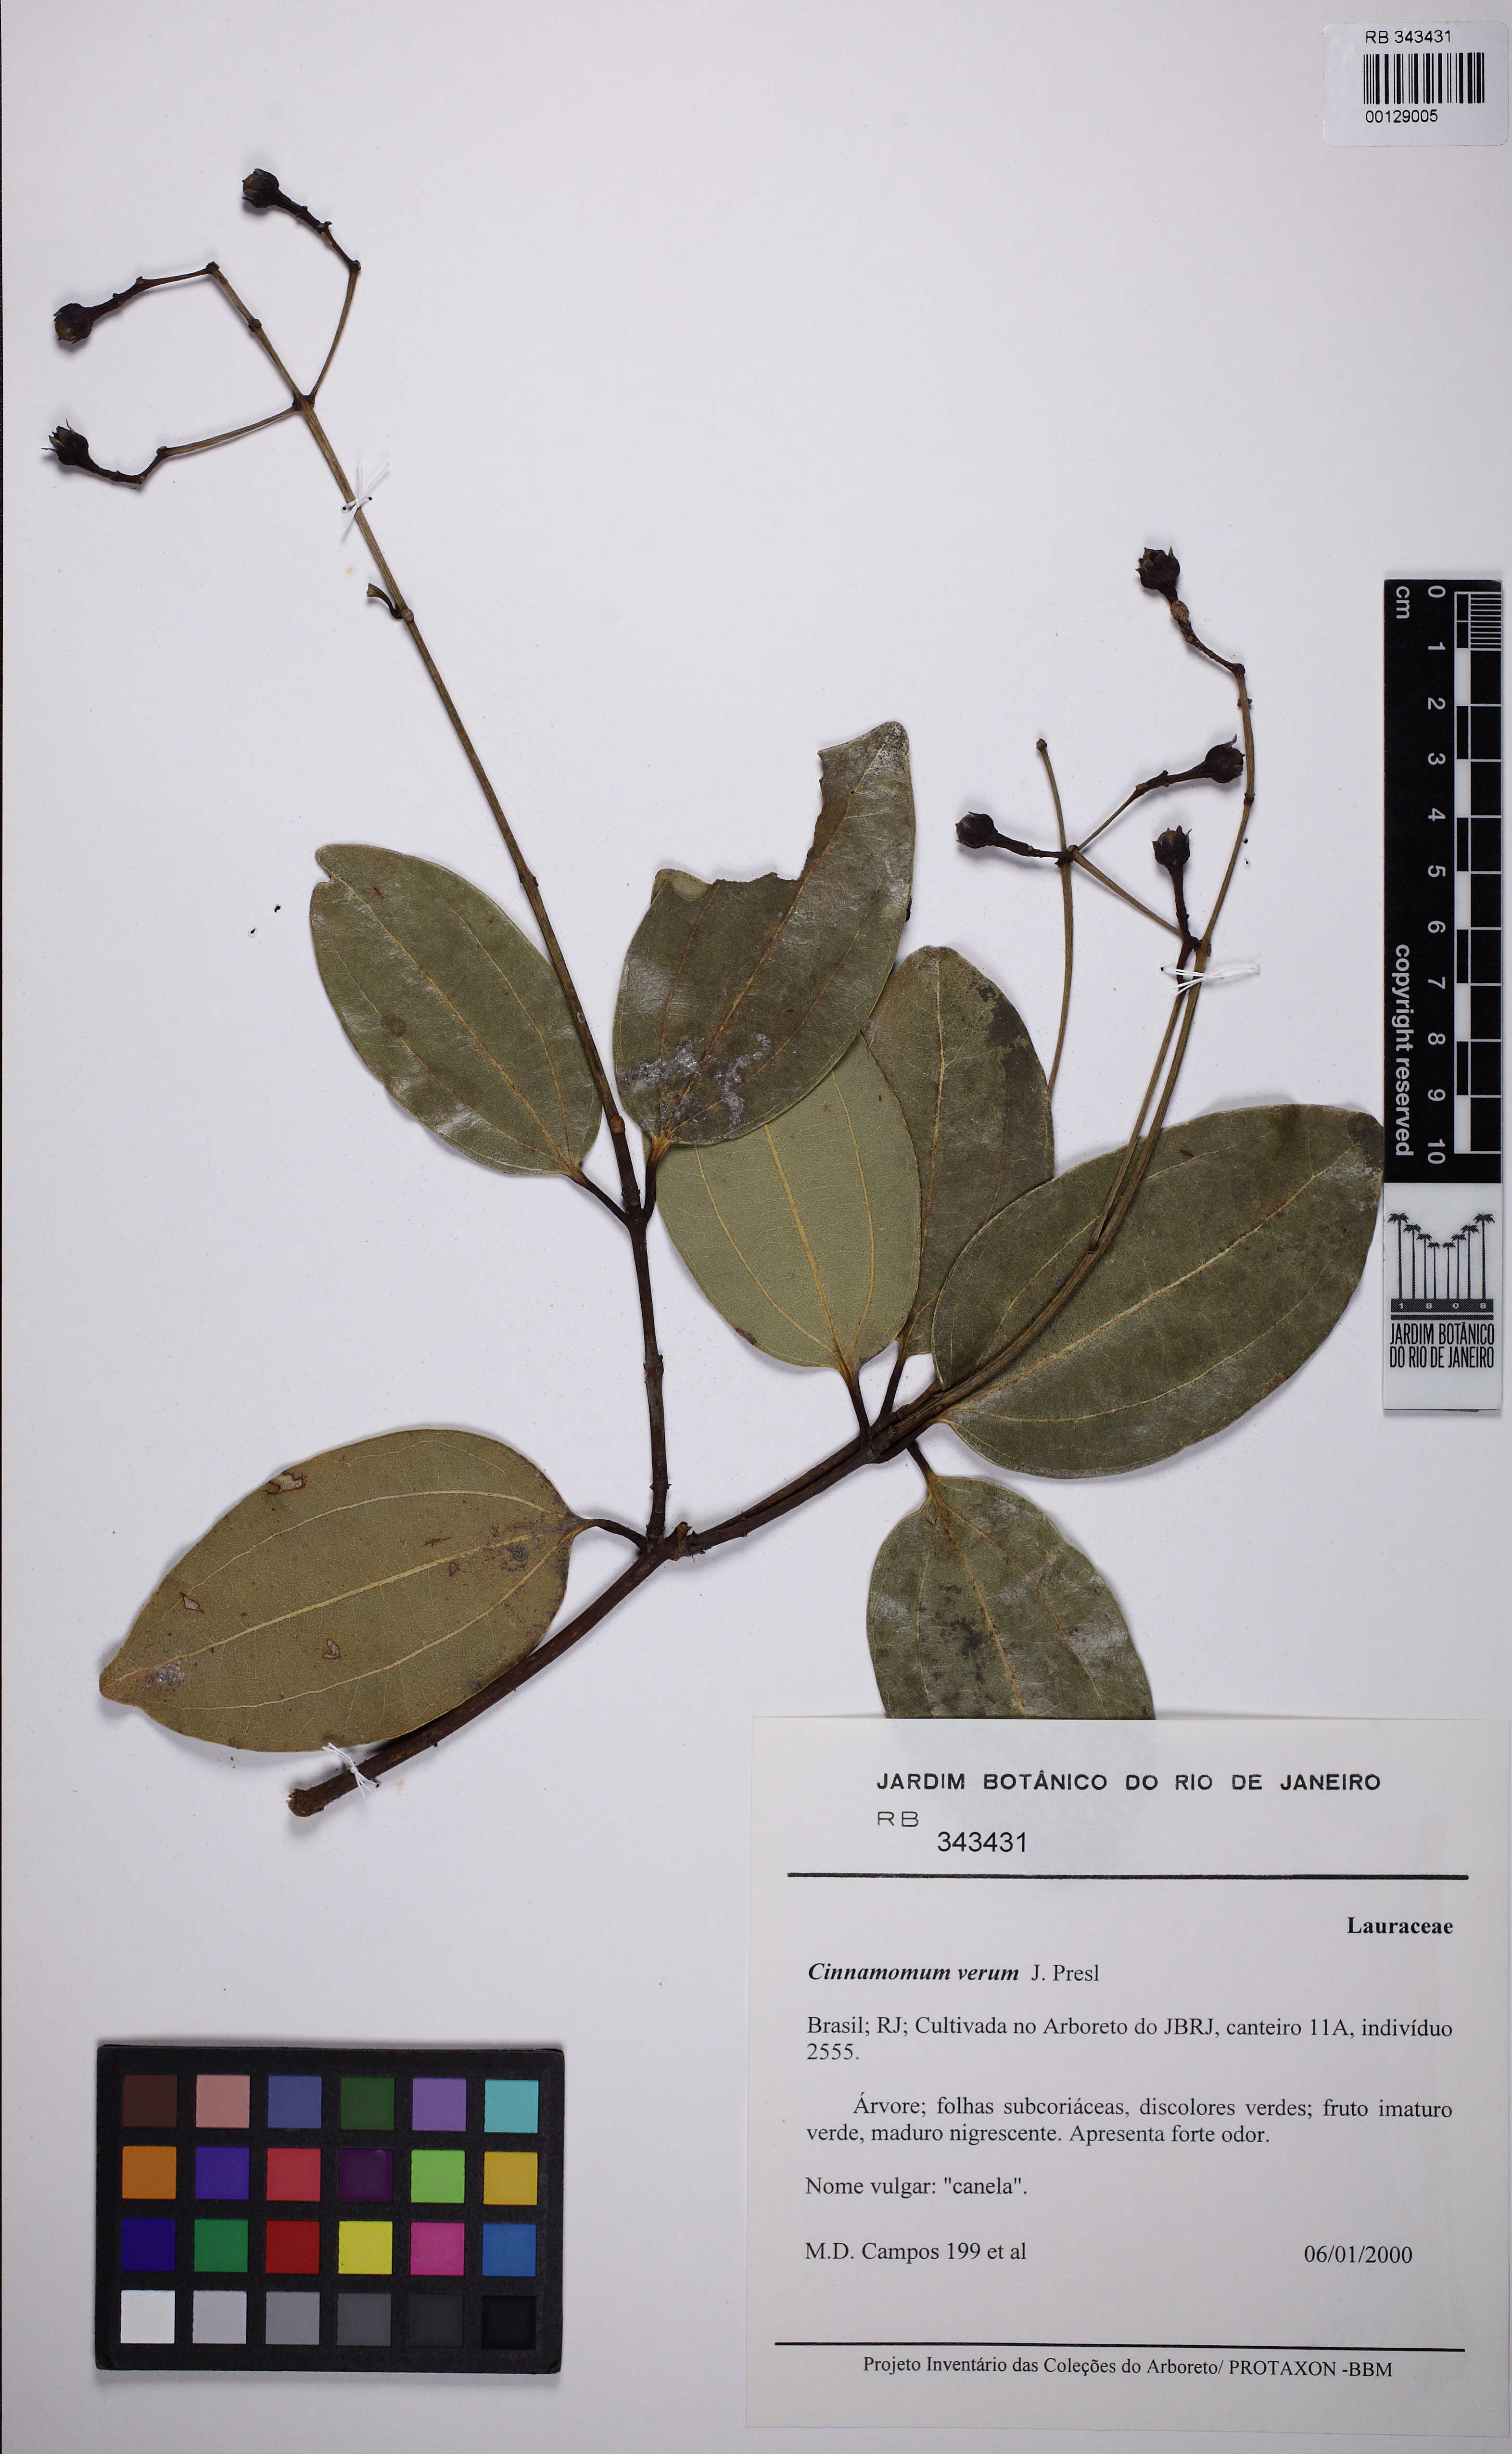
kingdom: Plantae
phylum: Tracheophyta
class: Magnoliopsida
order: Laurales
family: Lauraceae
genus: Cinnamomum
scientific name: Cinnamomum verum
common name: Cinnamon
